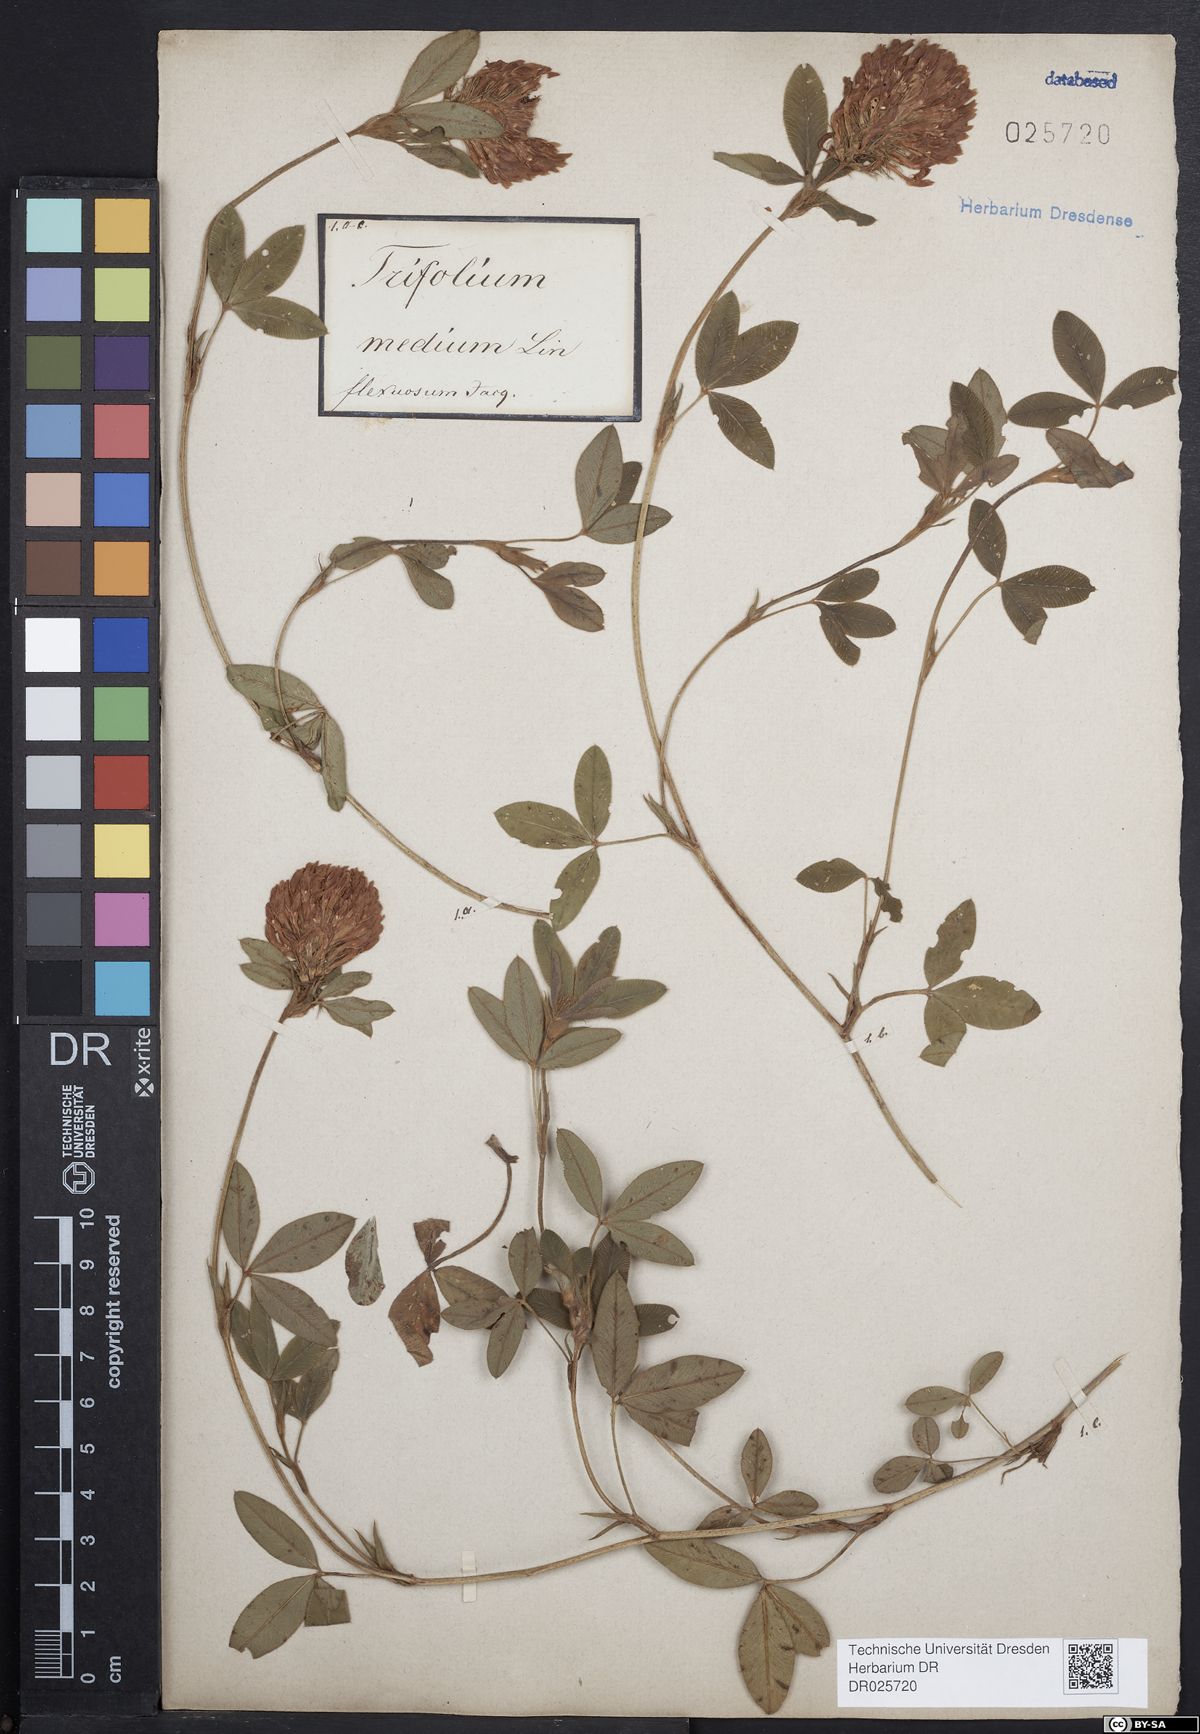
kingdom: Plantae
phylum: Tracheophyta
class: Magnoliopsida
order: Fabales
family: Fabaceae
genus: Trifolium
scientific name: Trifolium medium
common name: Zigzag clover
